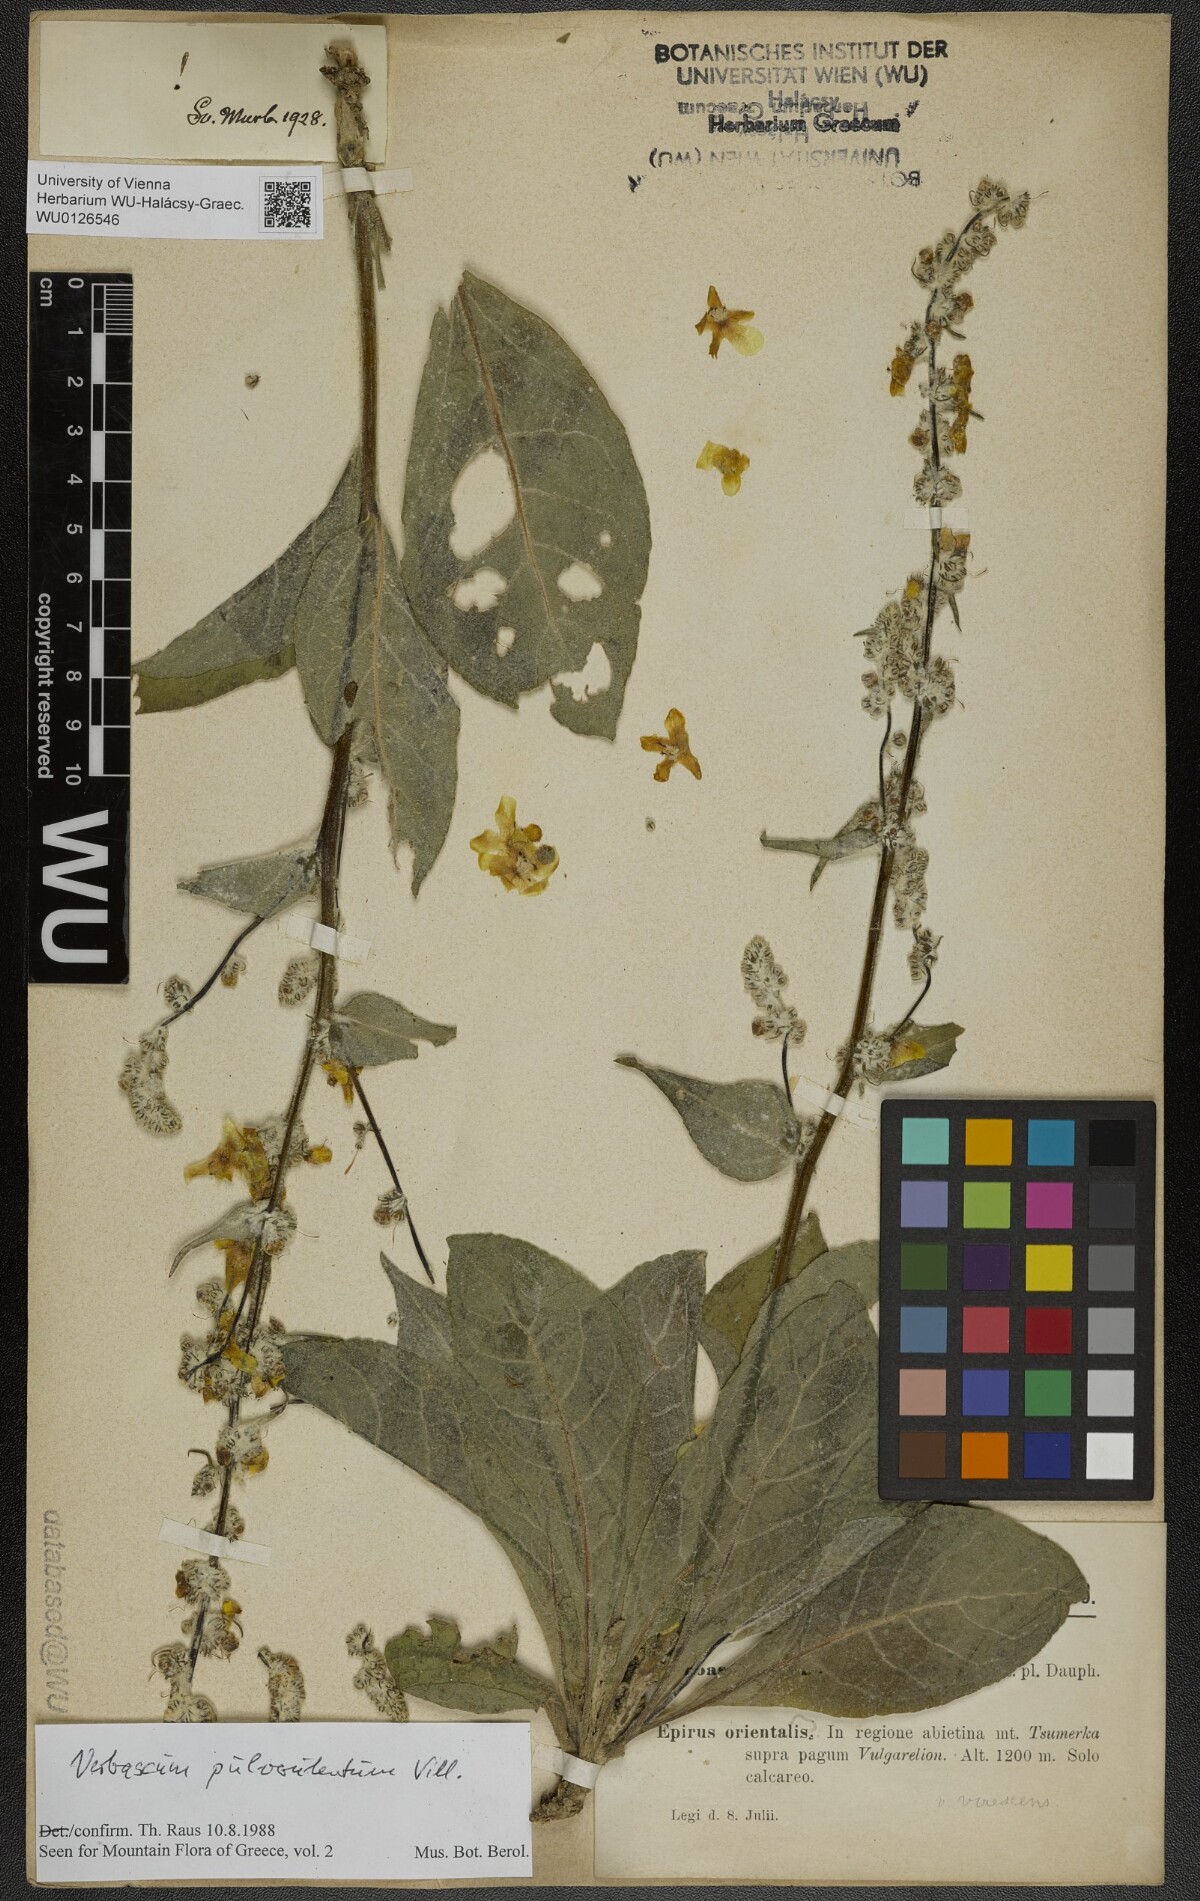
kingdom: Plantae
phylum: Tracheophyta
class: Magnoliopsida
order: Lamiales
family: Scrophulariaceae
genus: Verbascum
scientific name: Verbascum pulverulentum
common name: Broad-leaf mullein
